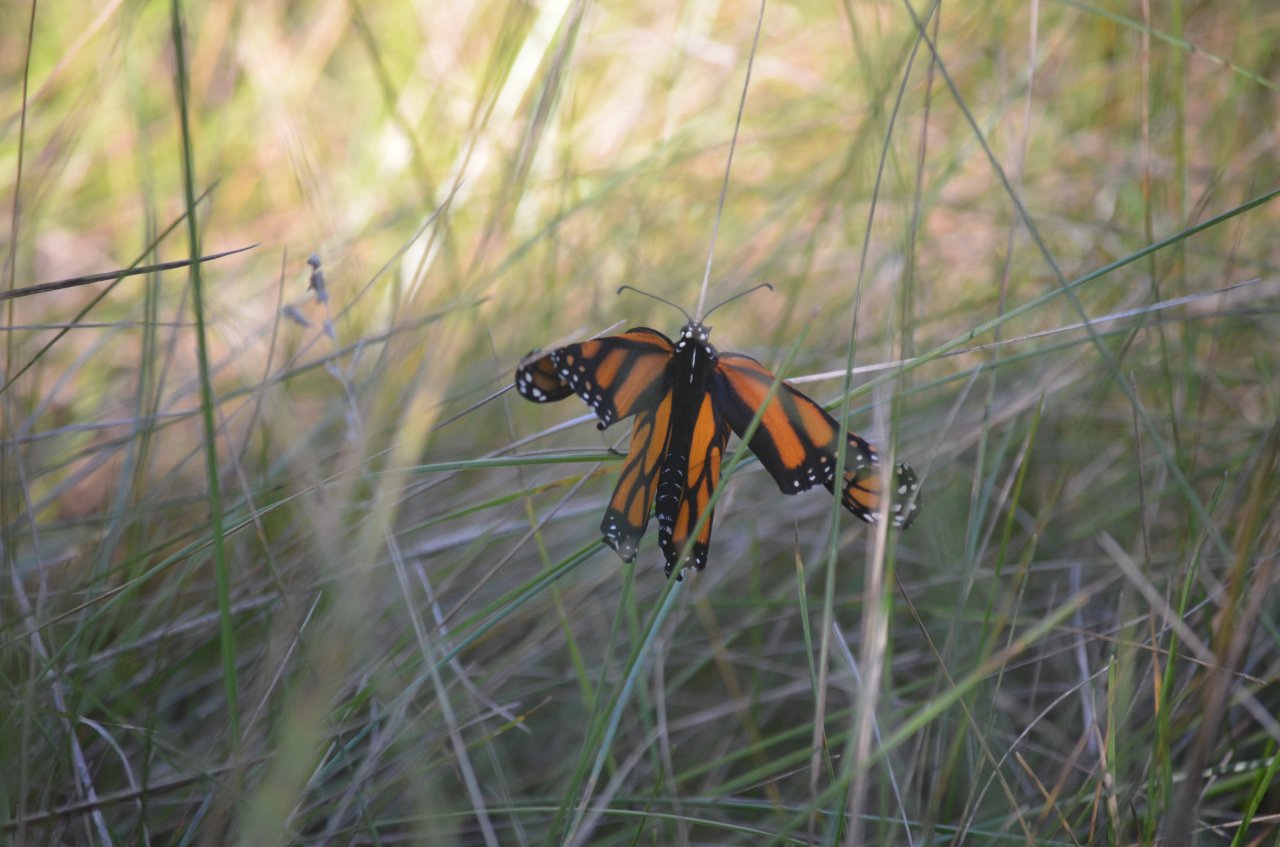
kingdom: Animalia
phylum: Arthropoda
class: Insecta
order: Lepidoptera
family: Nymphalidae
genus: Danaus
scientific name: Danaus plexippus
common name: Monarch
